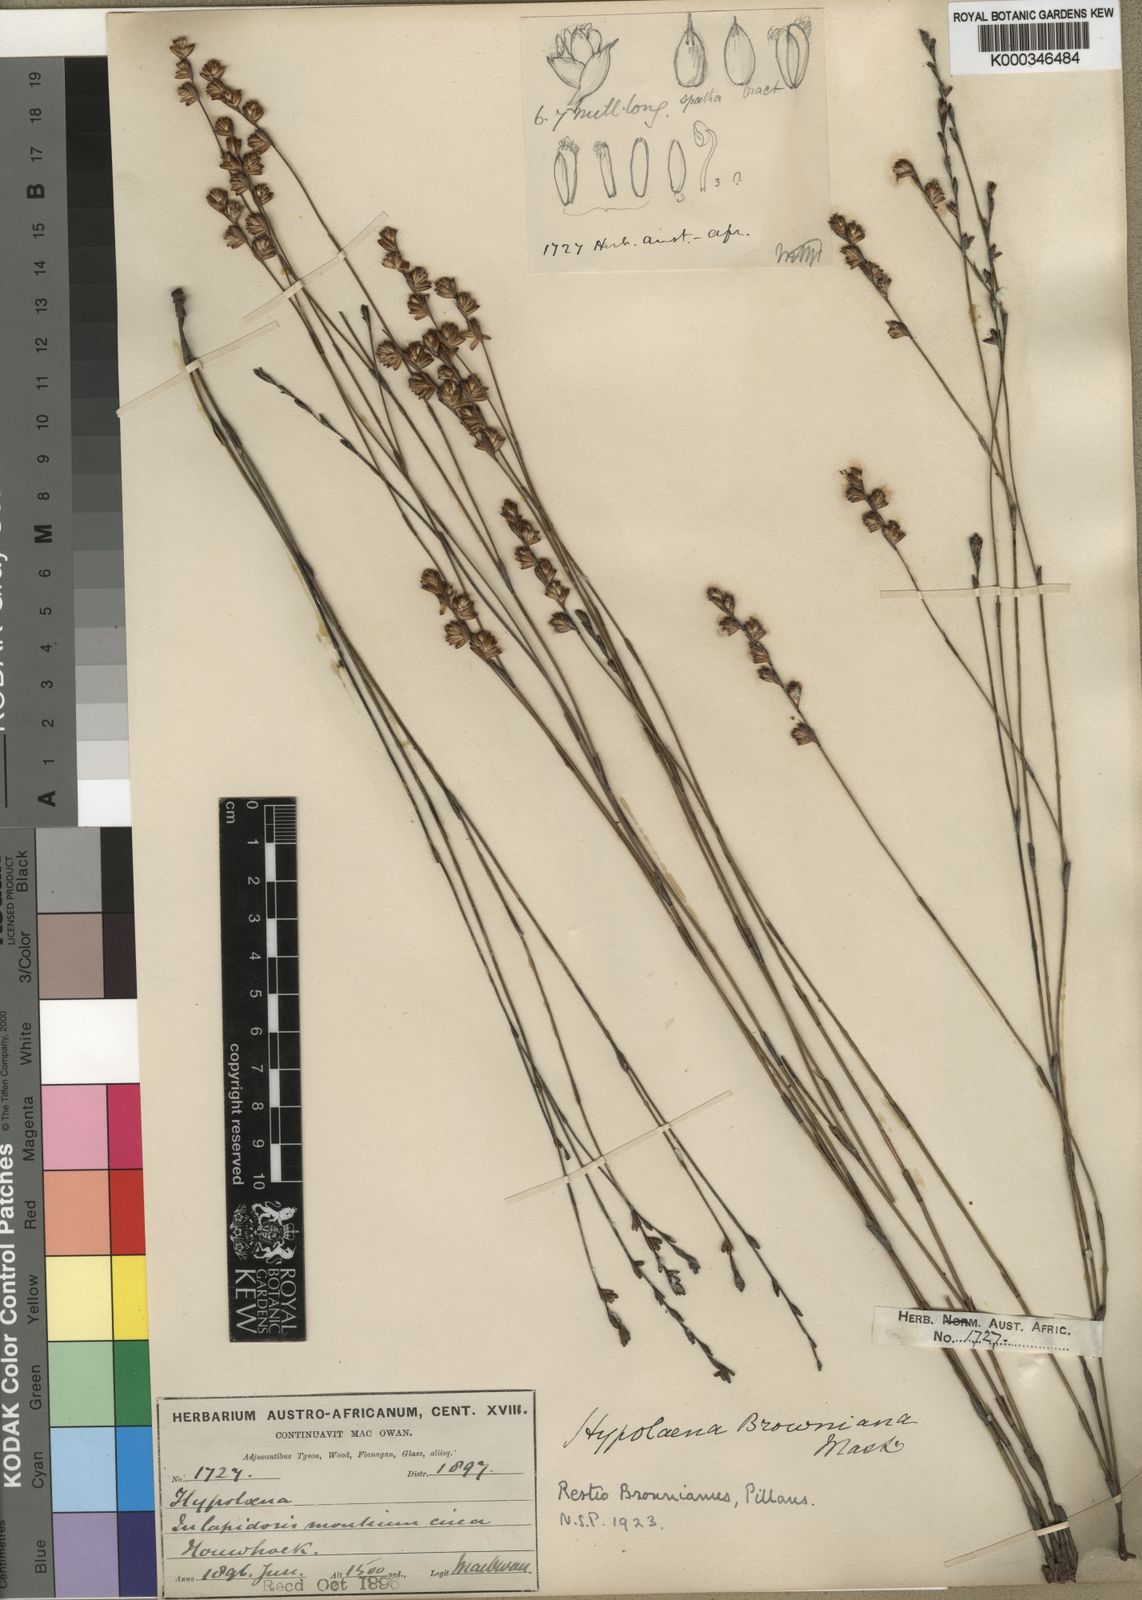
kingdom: Plantae
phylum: Tracheophyta
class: Liliopsida
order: Poales
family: Restionaceae
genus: Restio
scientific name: Restio debilis
